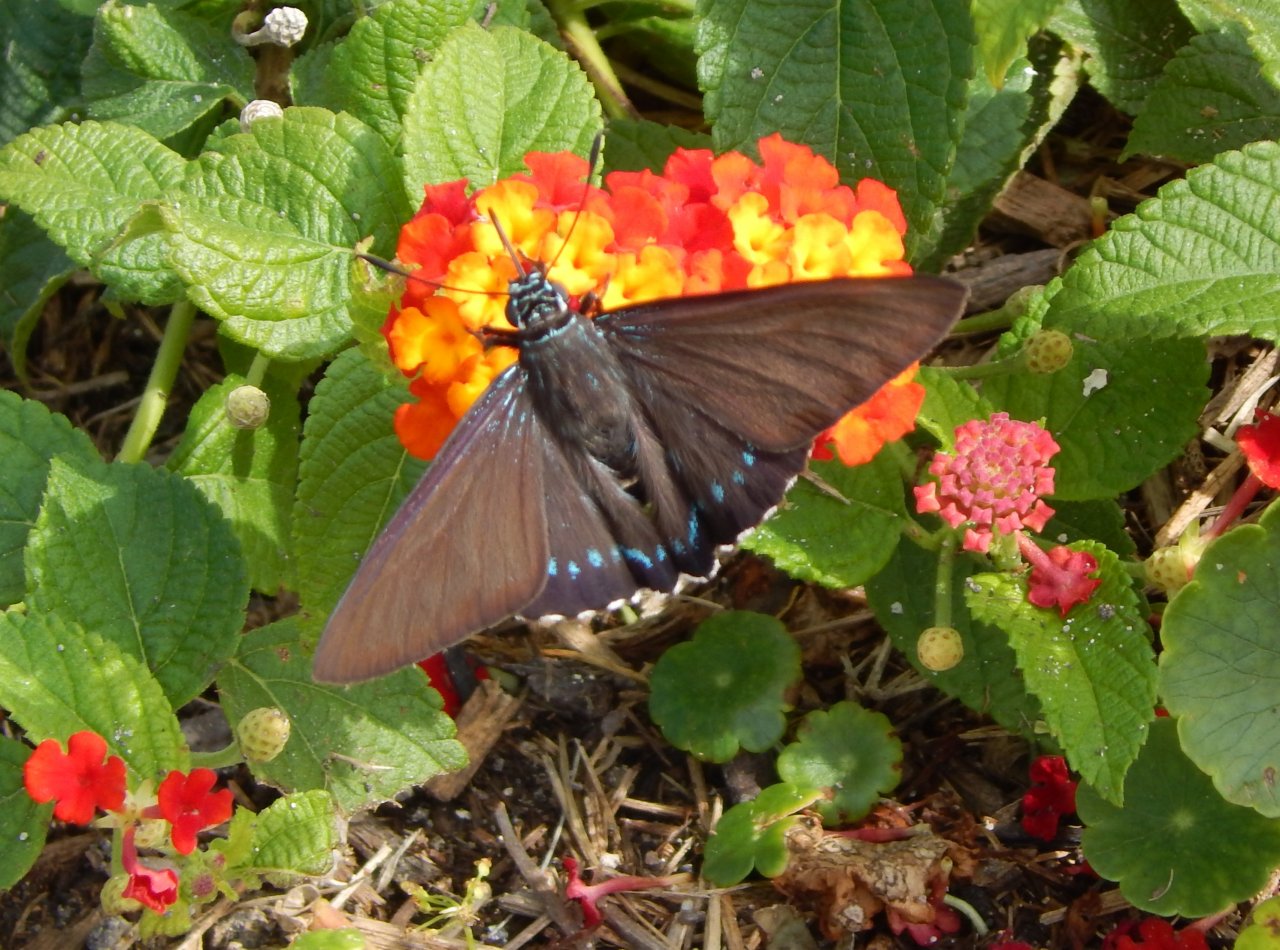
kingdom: Animalia
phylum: Arthropoda
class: Insecta
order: Lepidoptera
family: Hesperiidae
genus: Phocides
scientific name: Phocides pigmalion
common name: Mangrove Skipper
